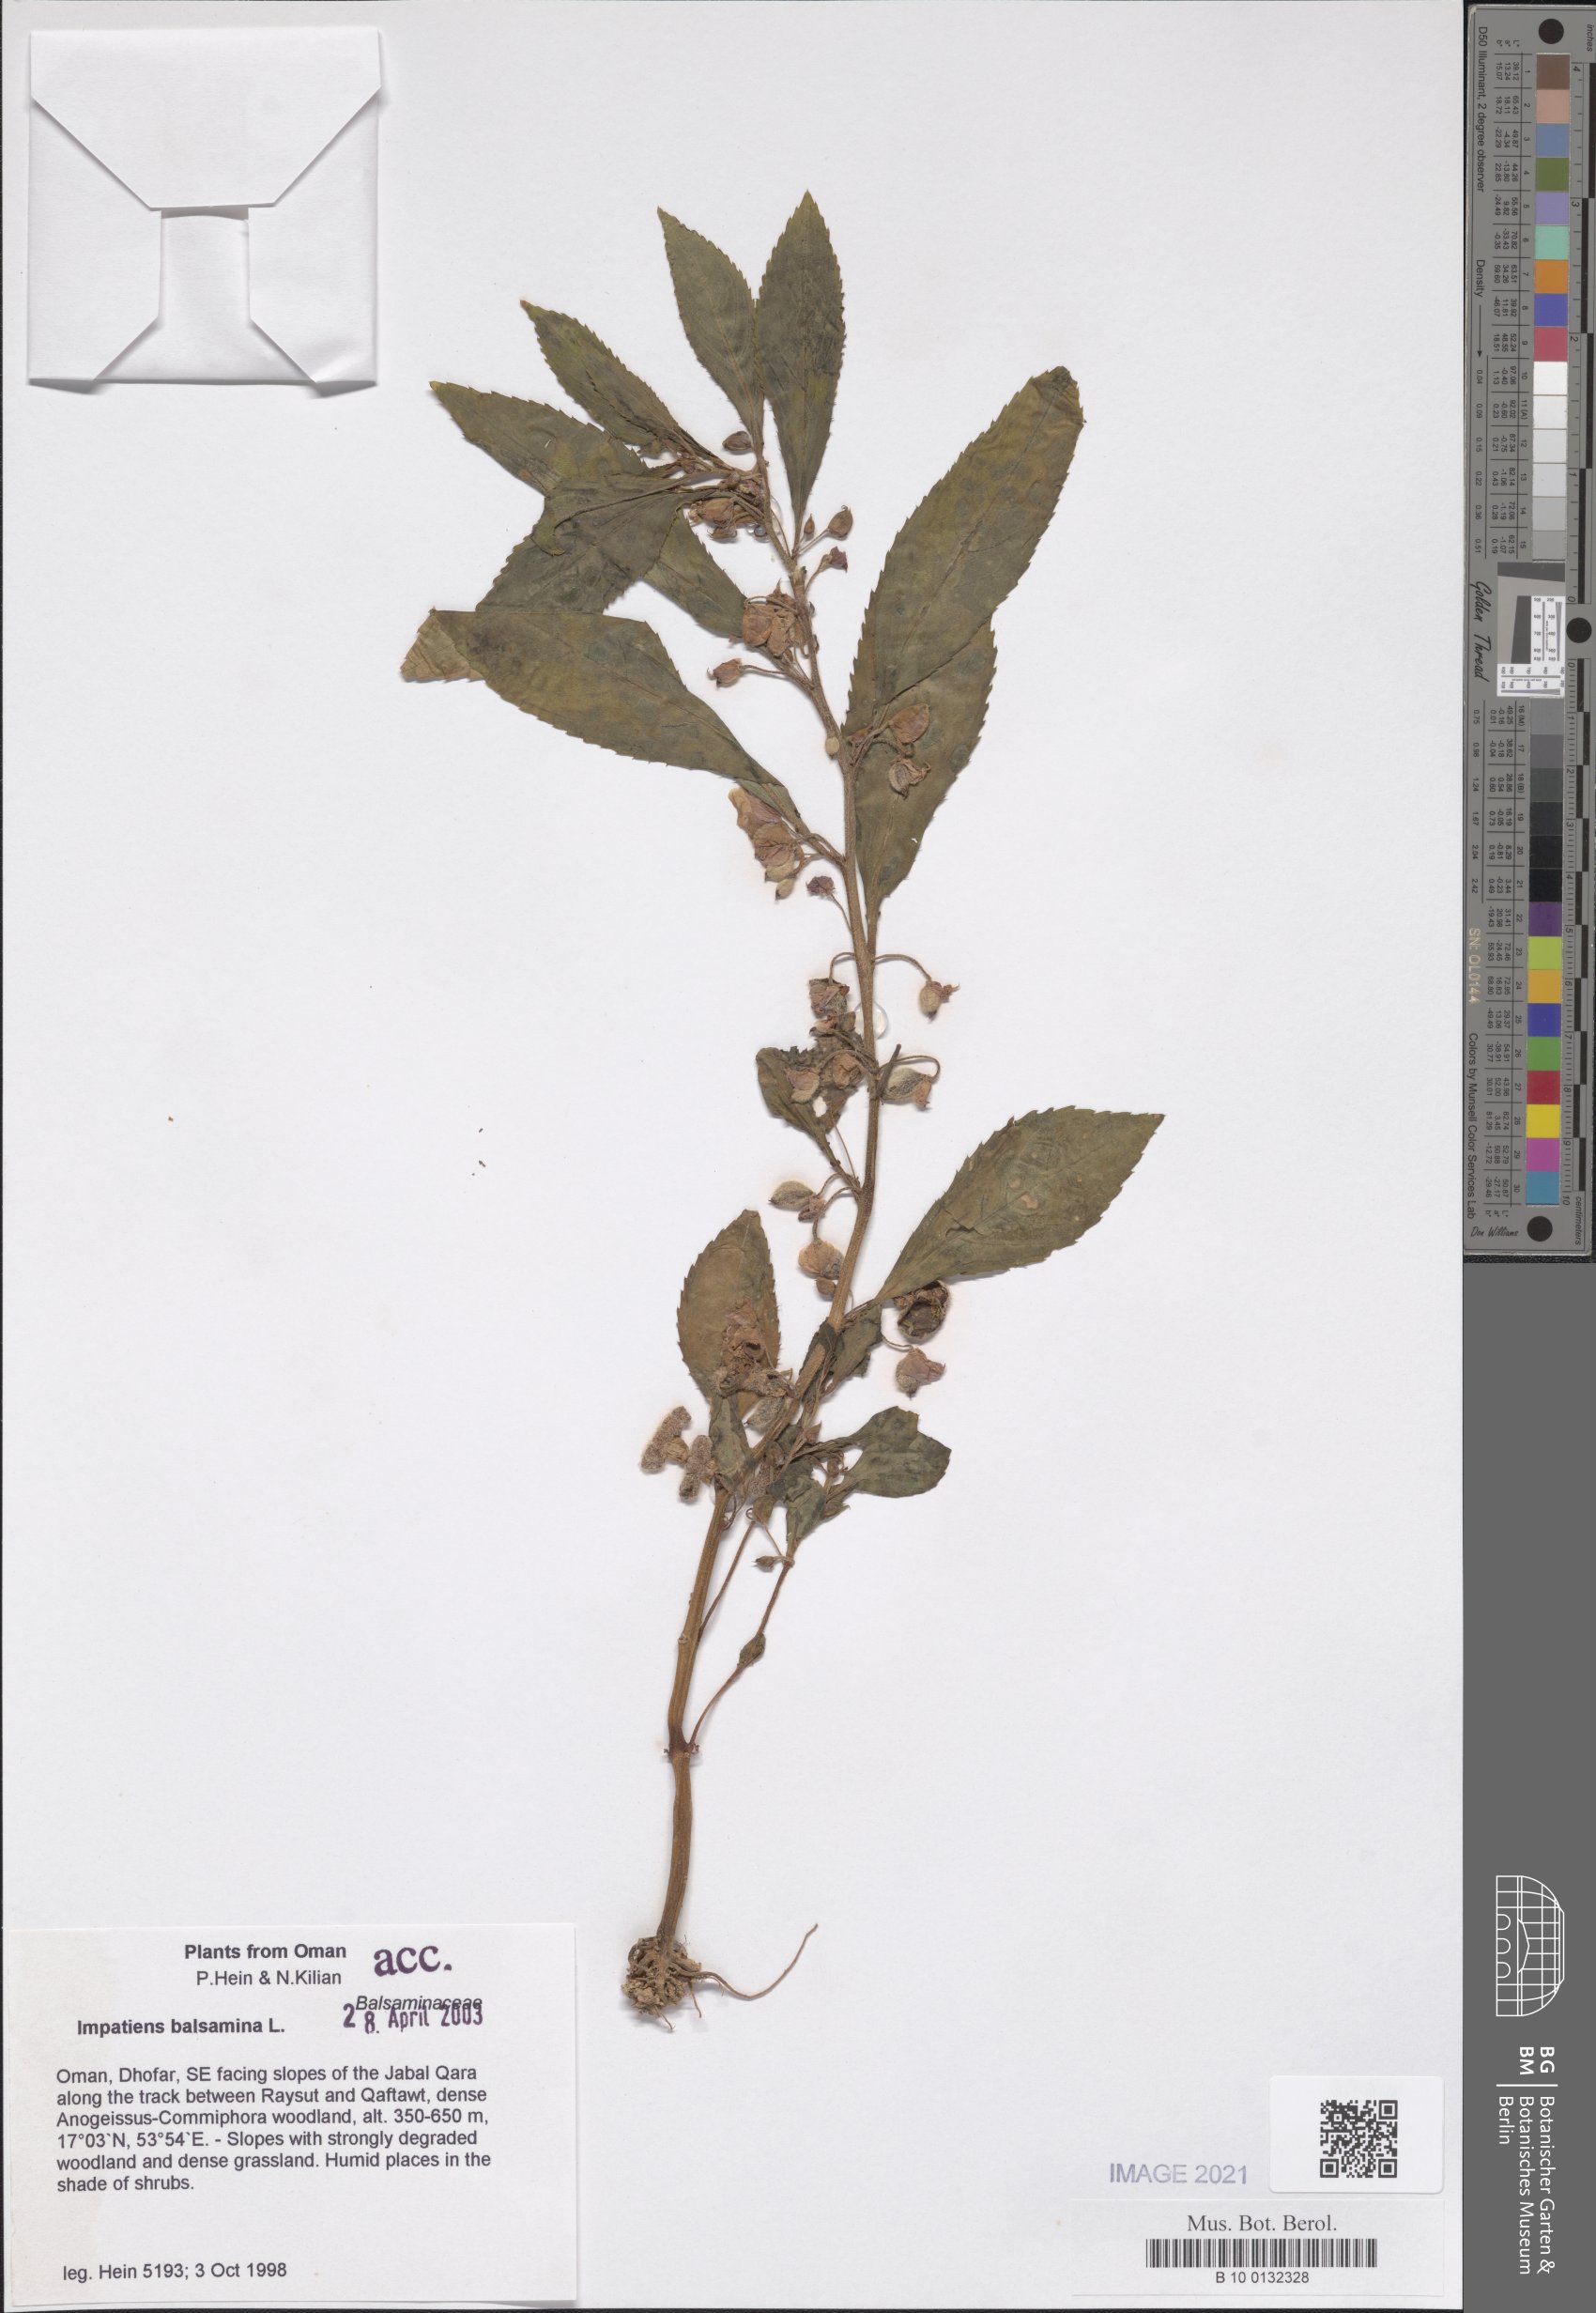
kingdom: Plantae
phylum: Tracheophyta
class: Magnoliopsida
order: Ericales
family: Balsaminaceae
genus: Impatiens
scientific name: Impatiens balsamina
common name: Balsam
